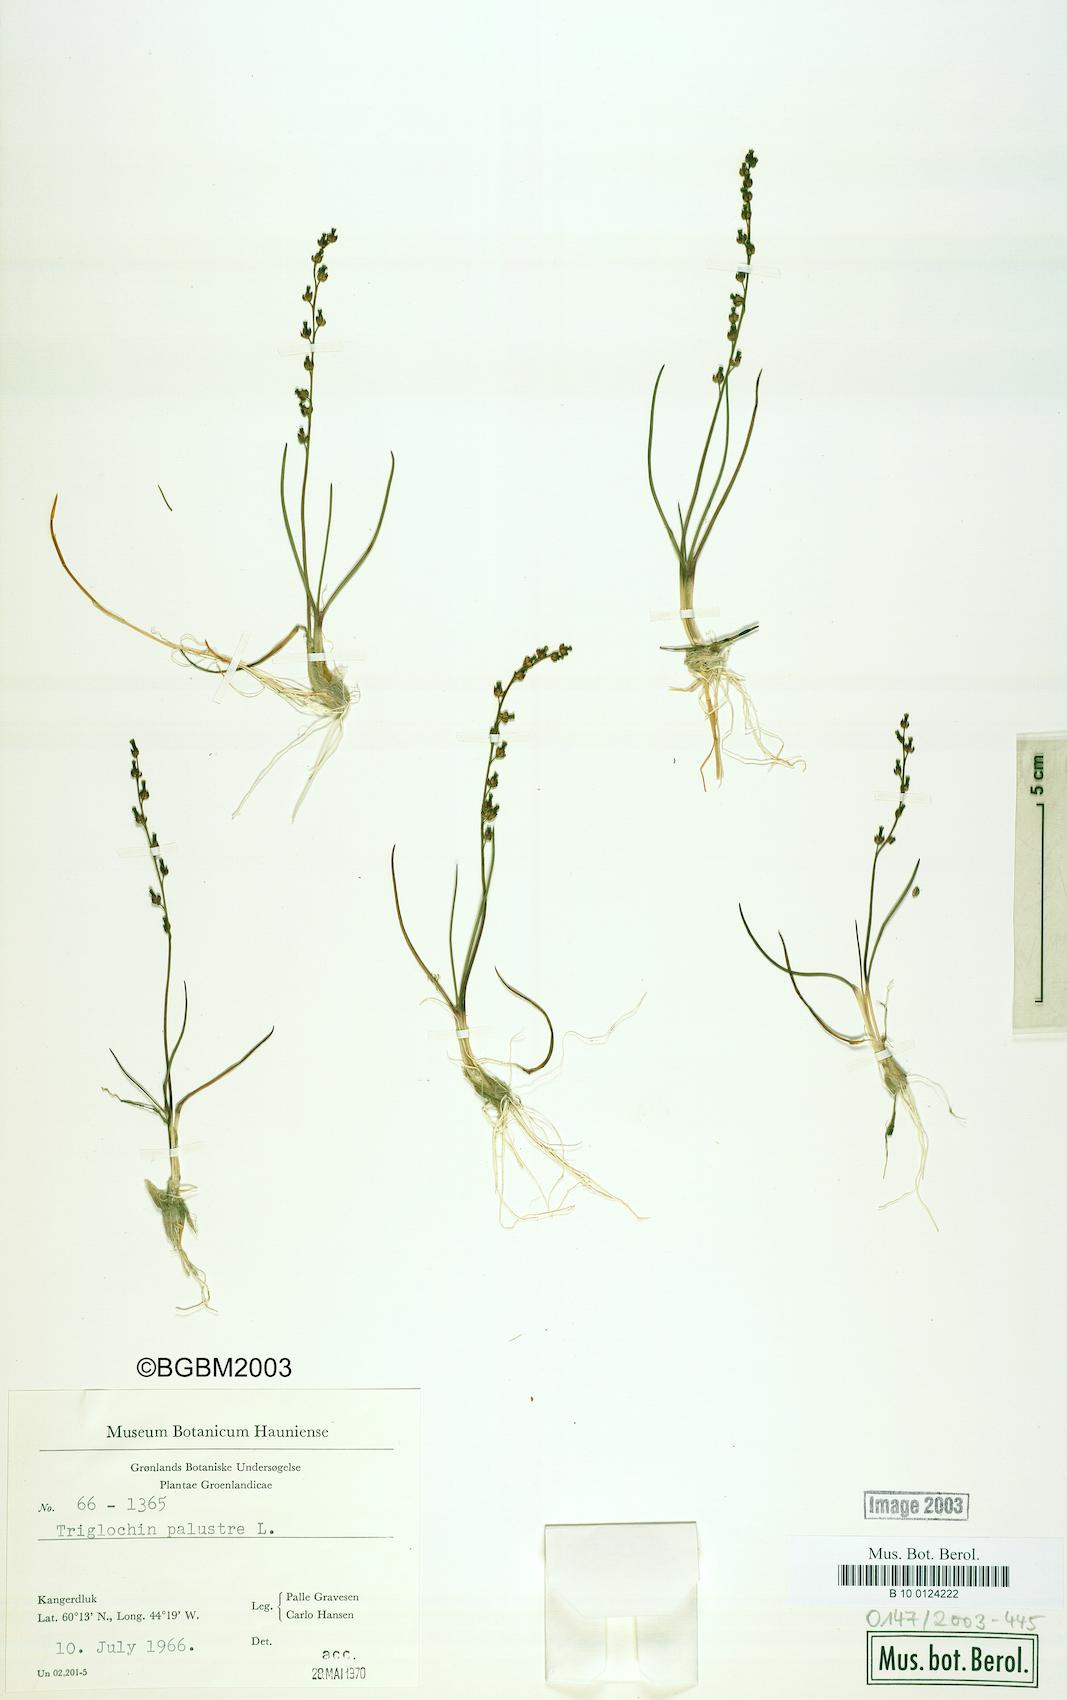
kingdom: Plantae
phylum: Tracheophyta
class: Liliopsida
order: Alismatales
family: Juncaginaceae
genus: Triglochin
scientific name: Triglochin palustris
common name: Marsh arrowgrass
